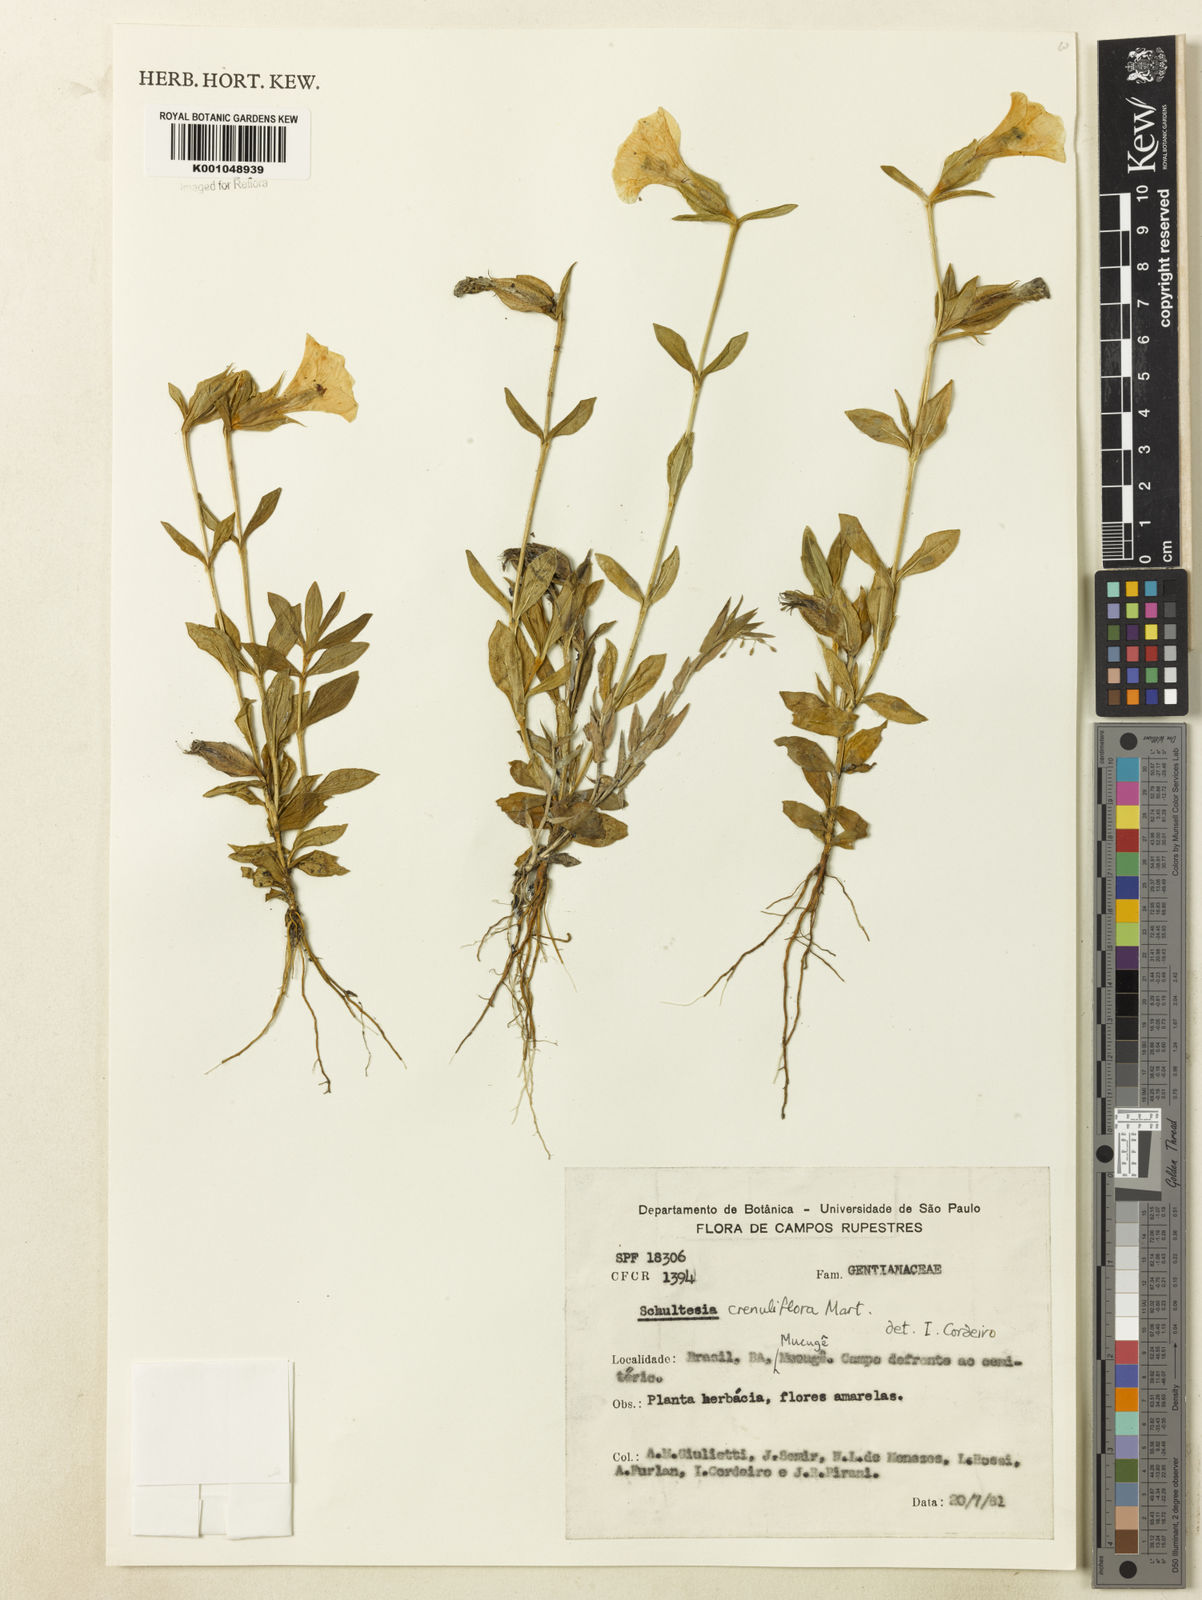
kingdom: Plantae
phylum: Tracheophyta
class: Magnoliopsida
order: Gentianales
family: Gentianaceae
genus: Schultesia
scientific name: Schultesia crenuliflora
